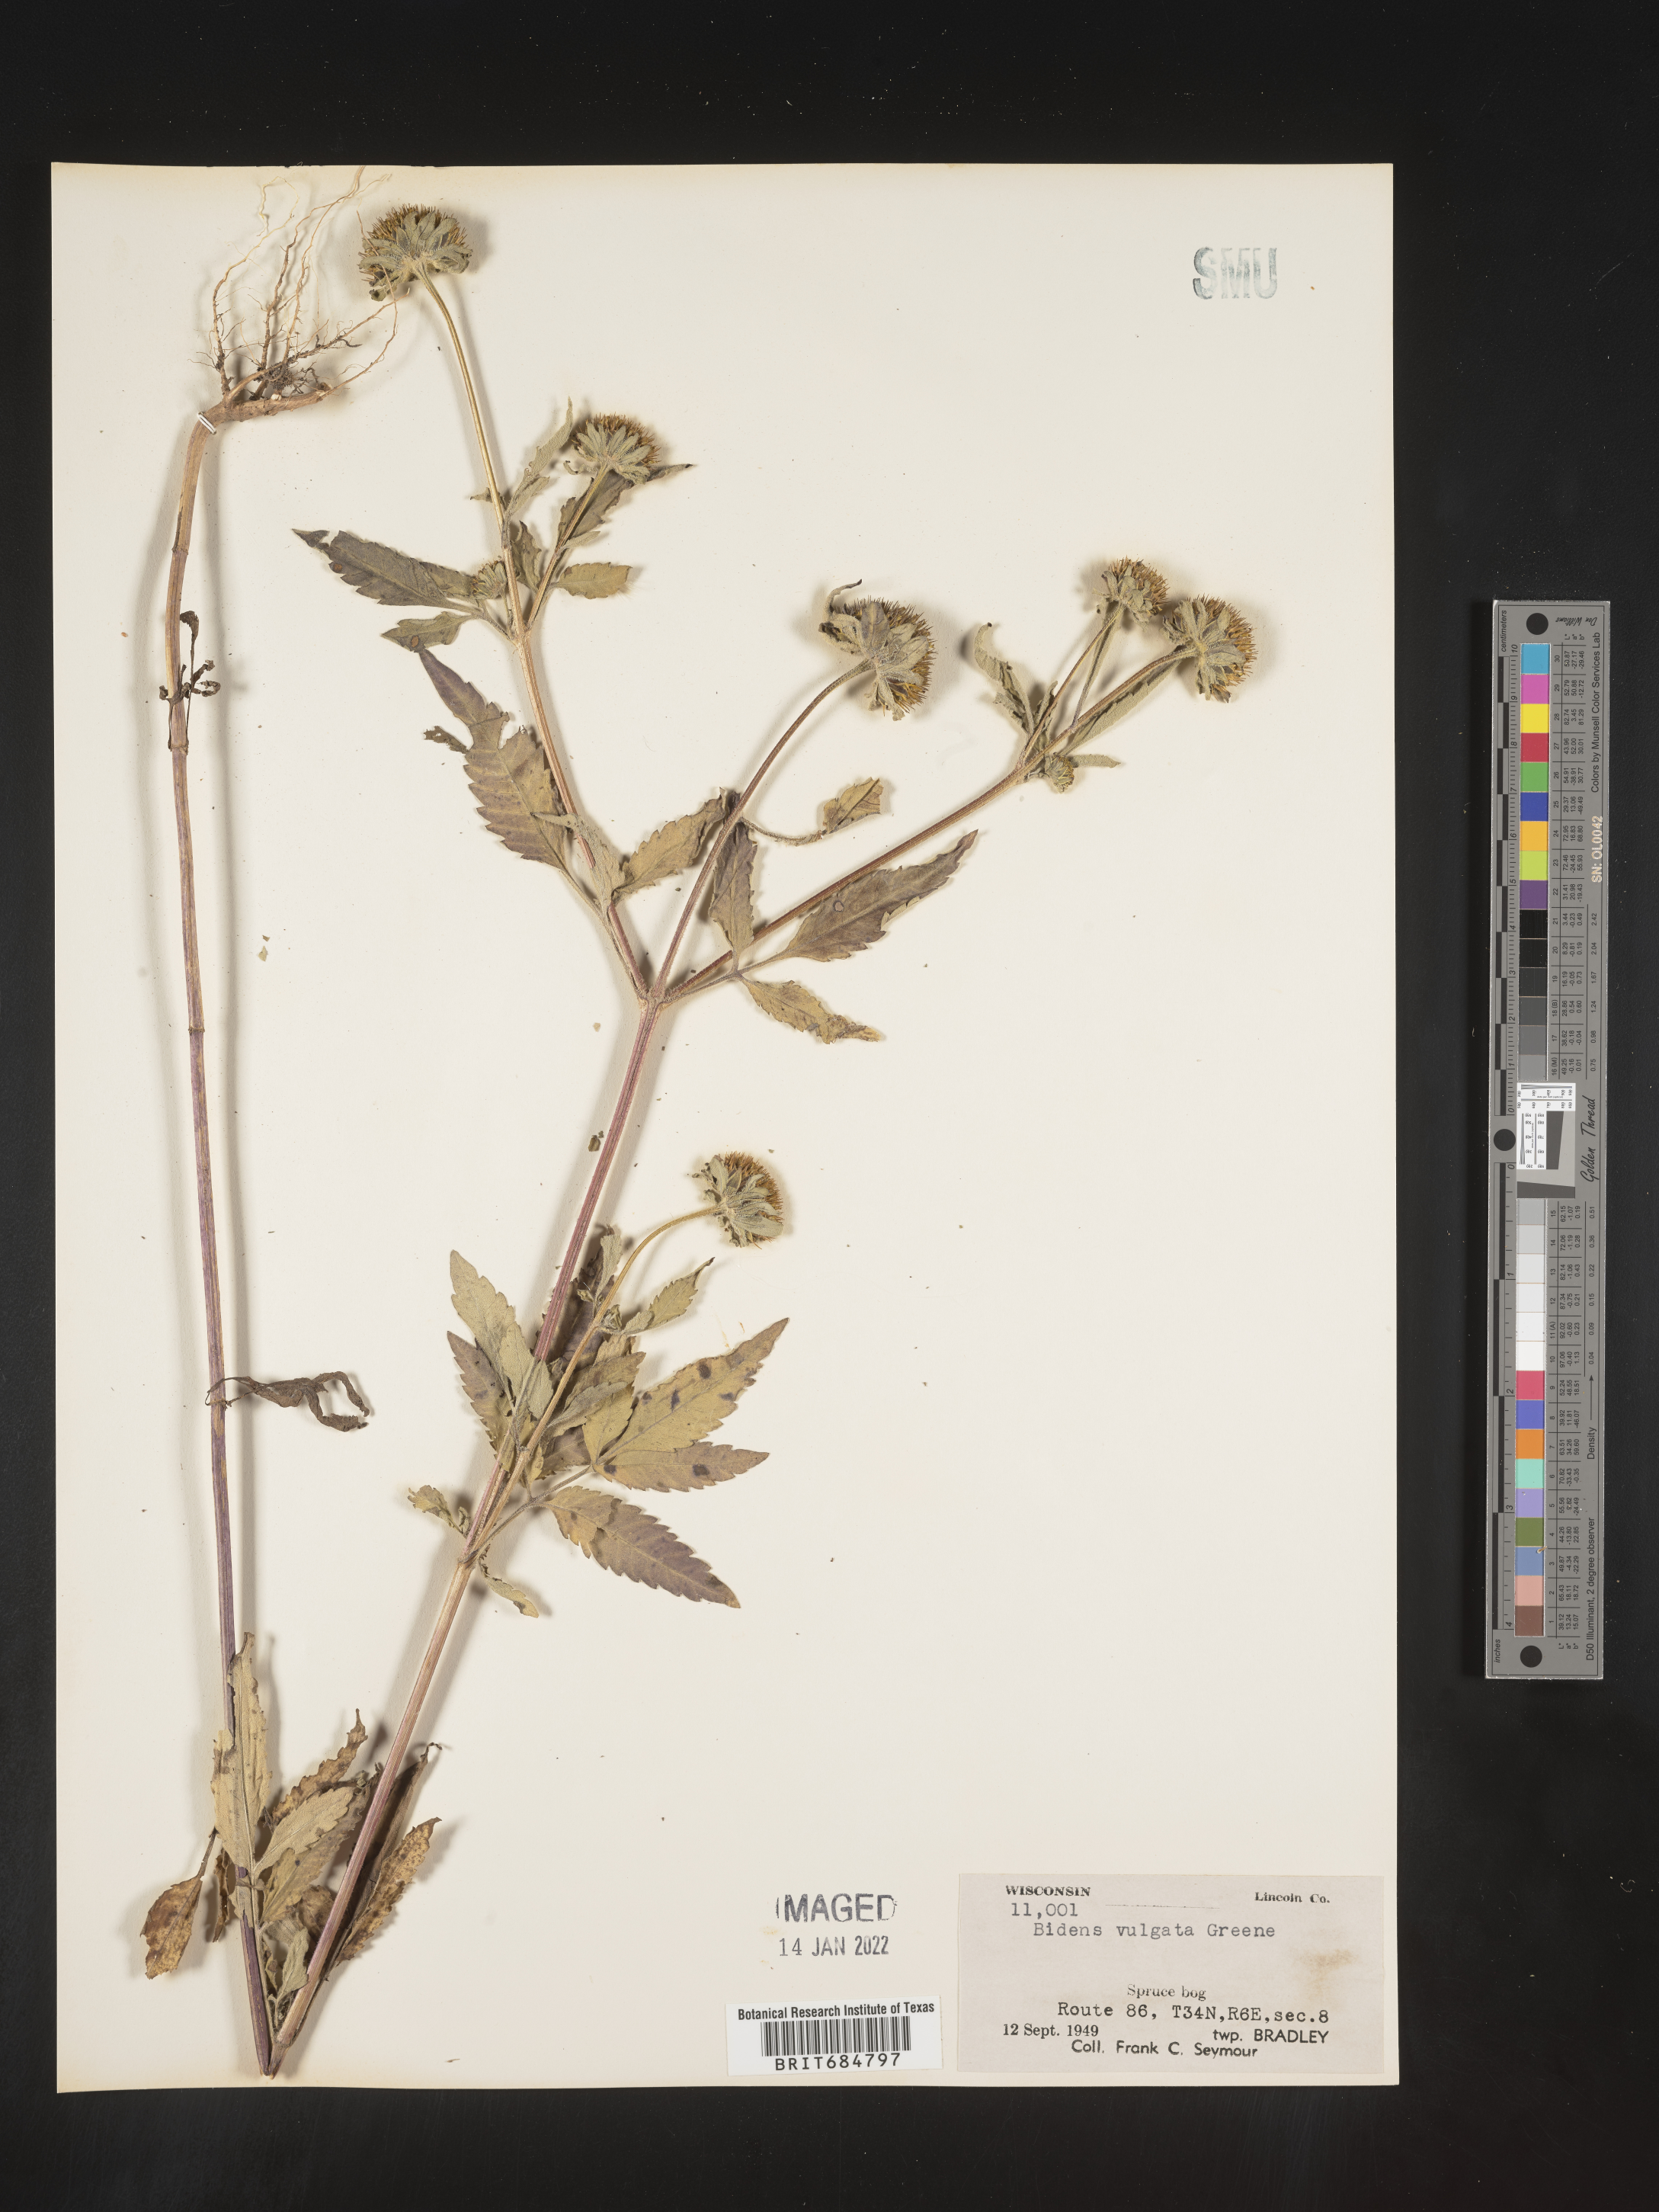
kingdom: Plantae
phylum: Tracheophyta
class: Magnoliopsida
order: Asterales
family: Asteraceae
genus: Bidens
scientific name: Bidens vulgata
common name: Tall beggarticks
